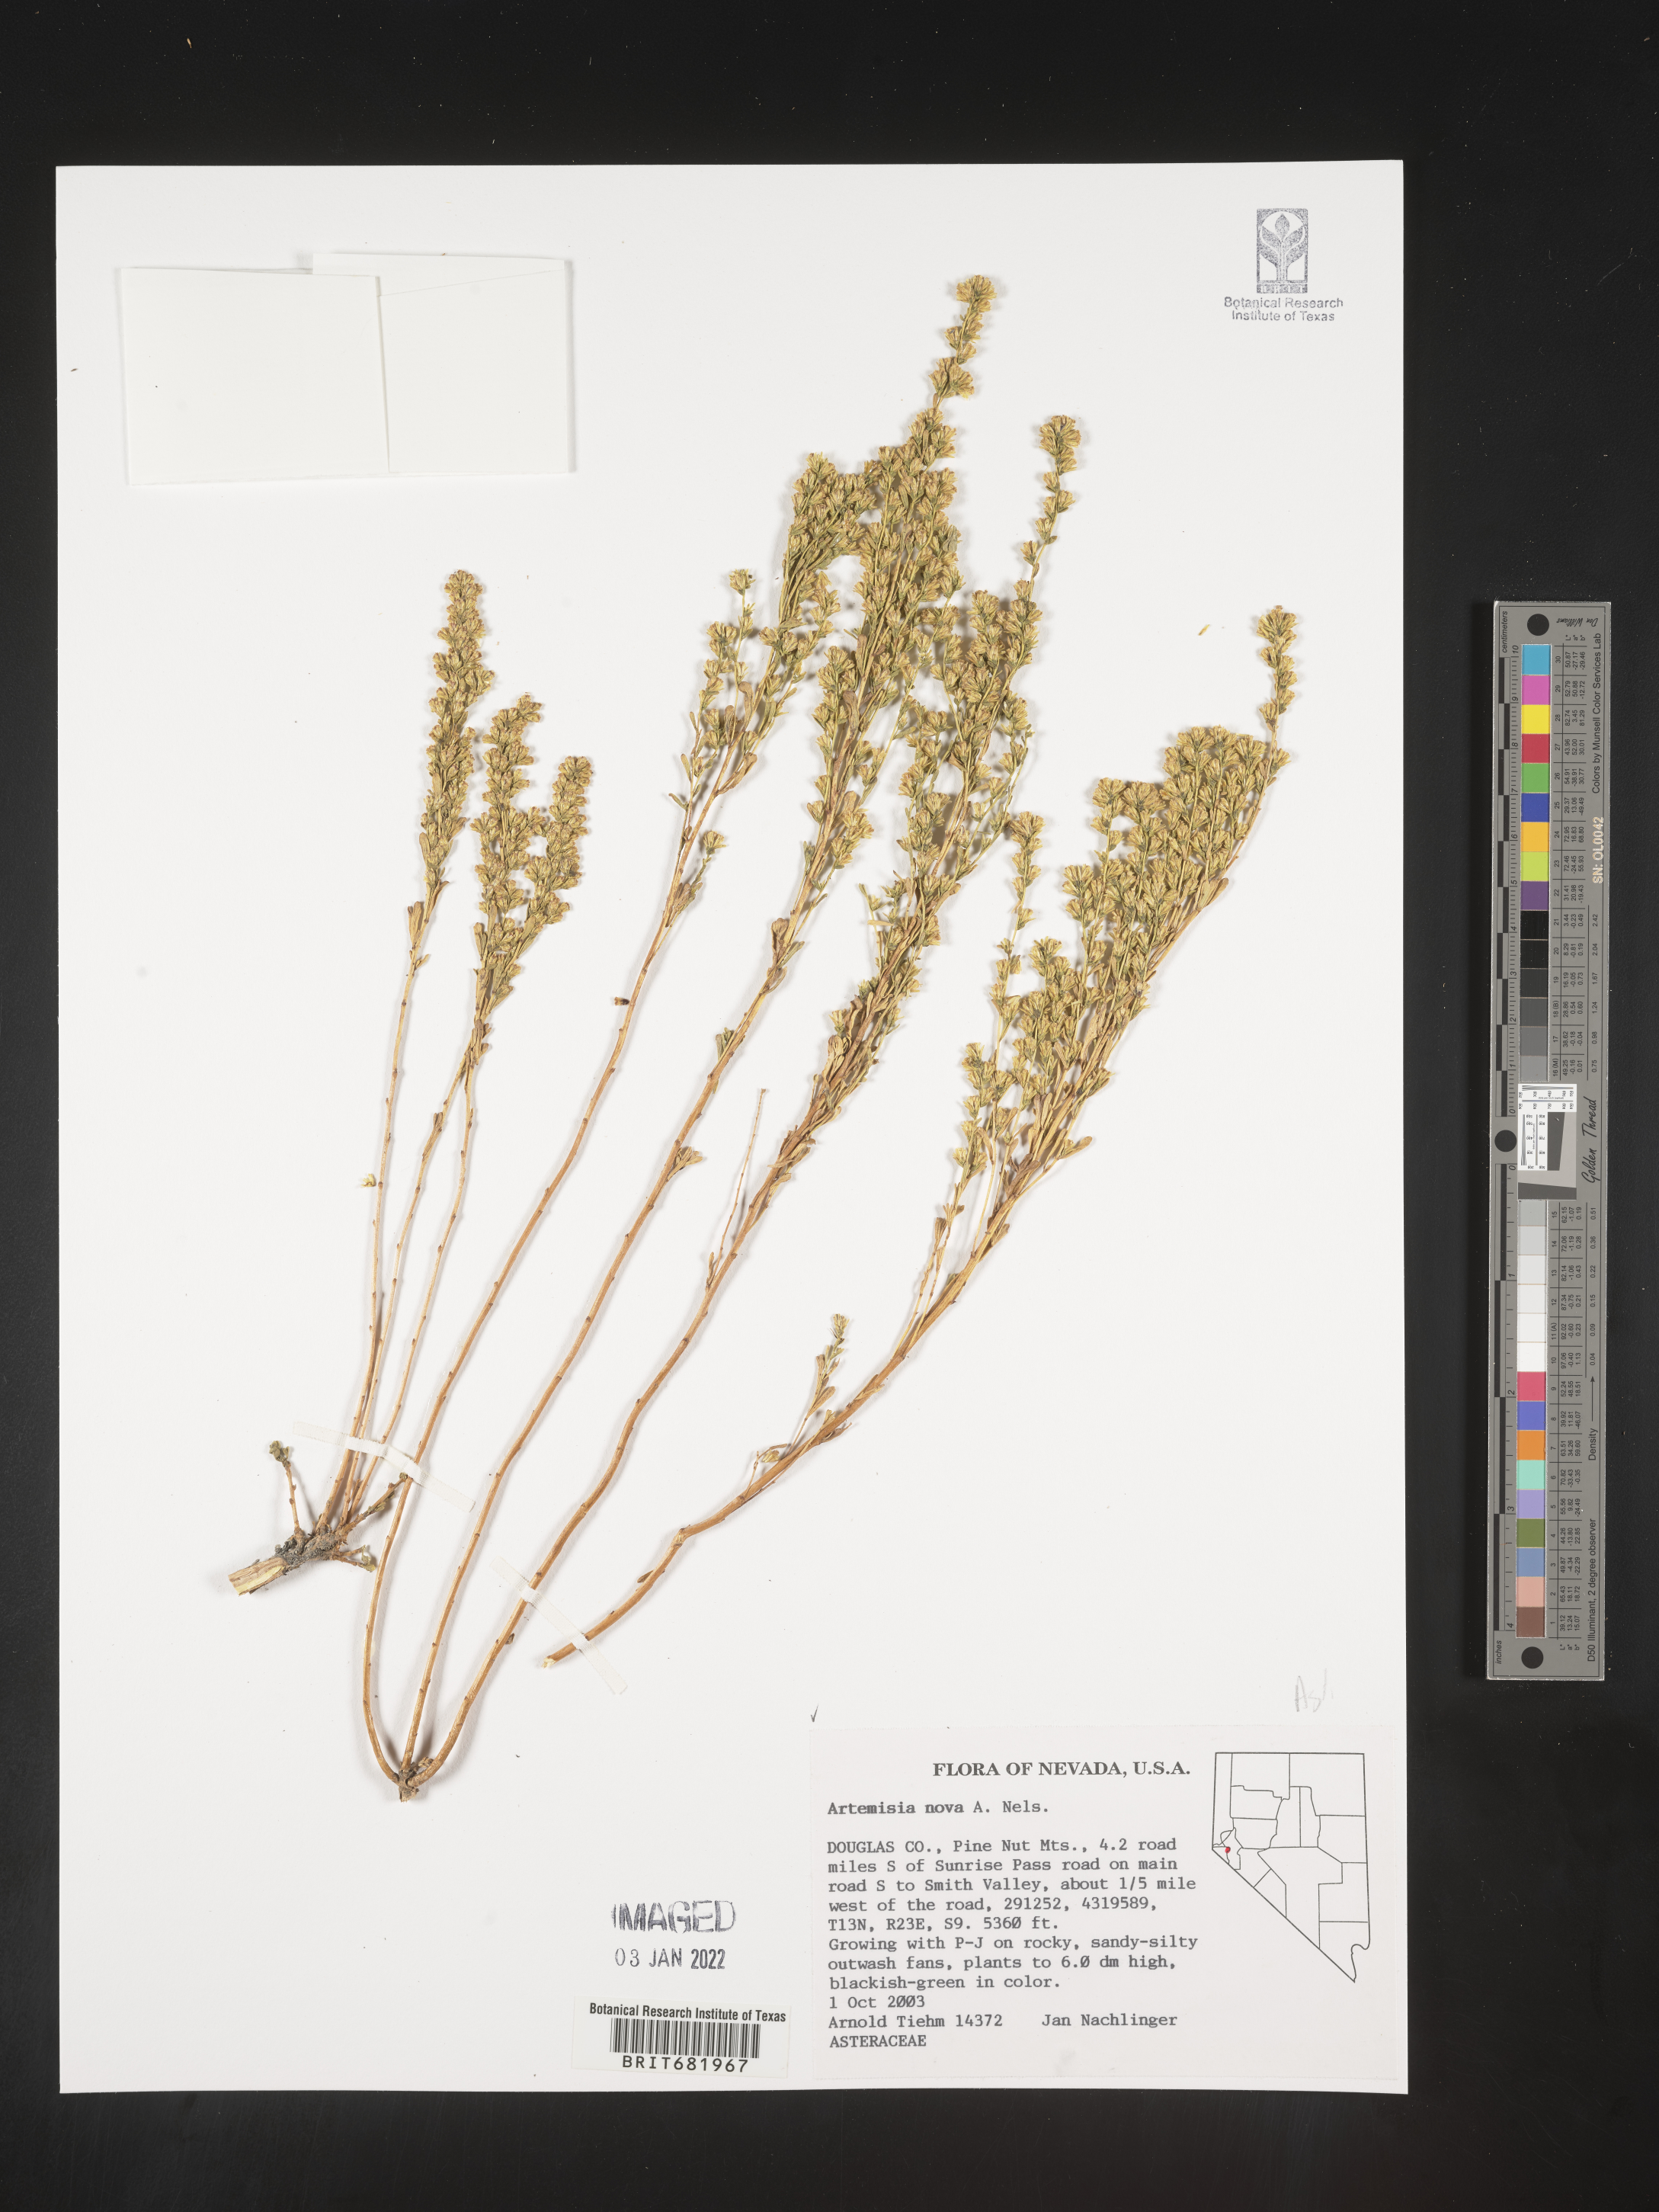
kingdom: Plantae
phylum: Tracheophyta
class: Magnoliopsida
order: Asterales
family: Asteraceae
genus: Artemisia
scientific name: Artemisia nova
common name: Black-sage
